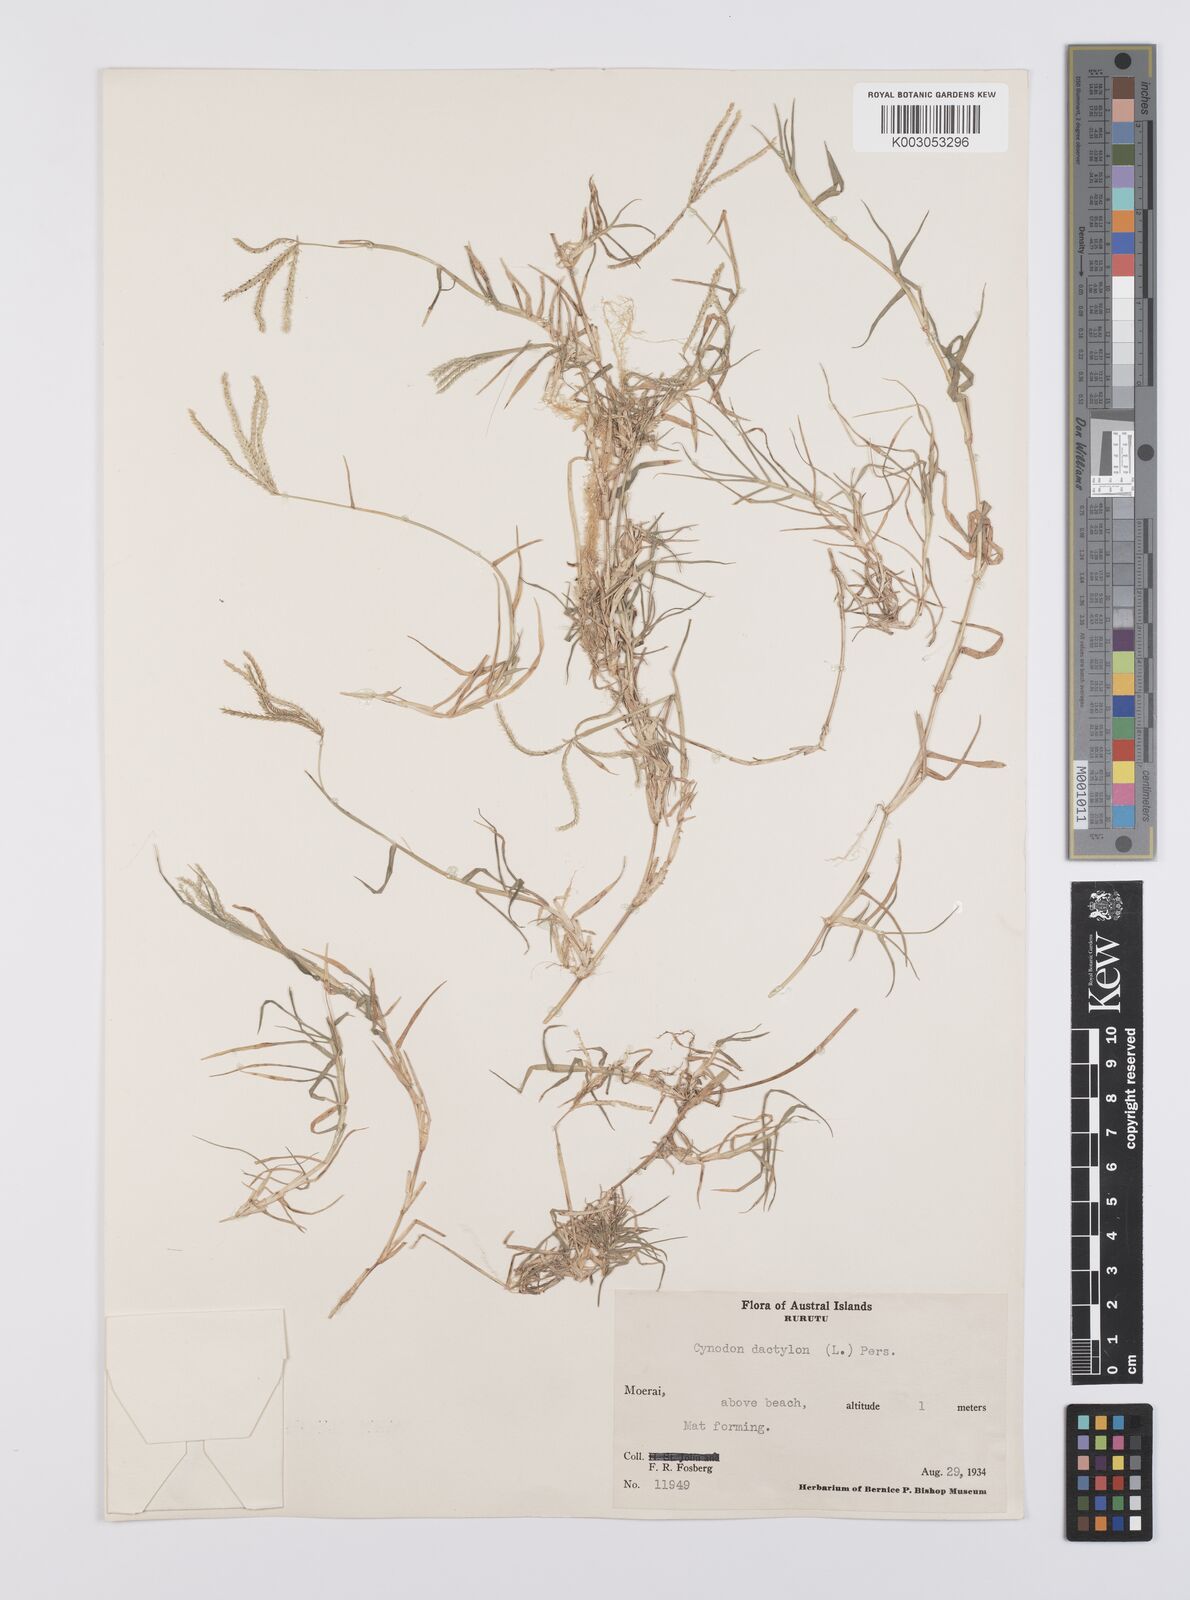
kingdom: Plantae
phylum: Tracheophyta
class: Liliopsida
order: Poales
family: Poaceae
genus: Cynodon
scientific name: Cynodon dactylon
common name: Bermuda grass
